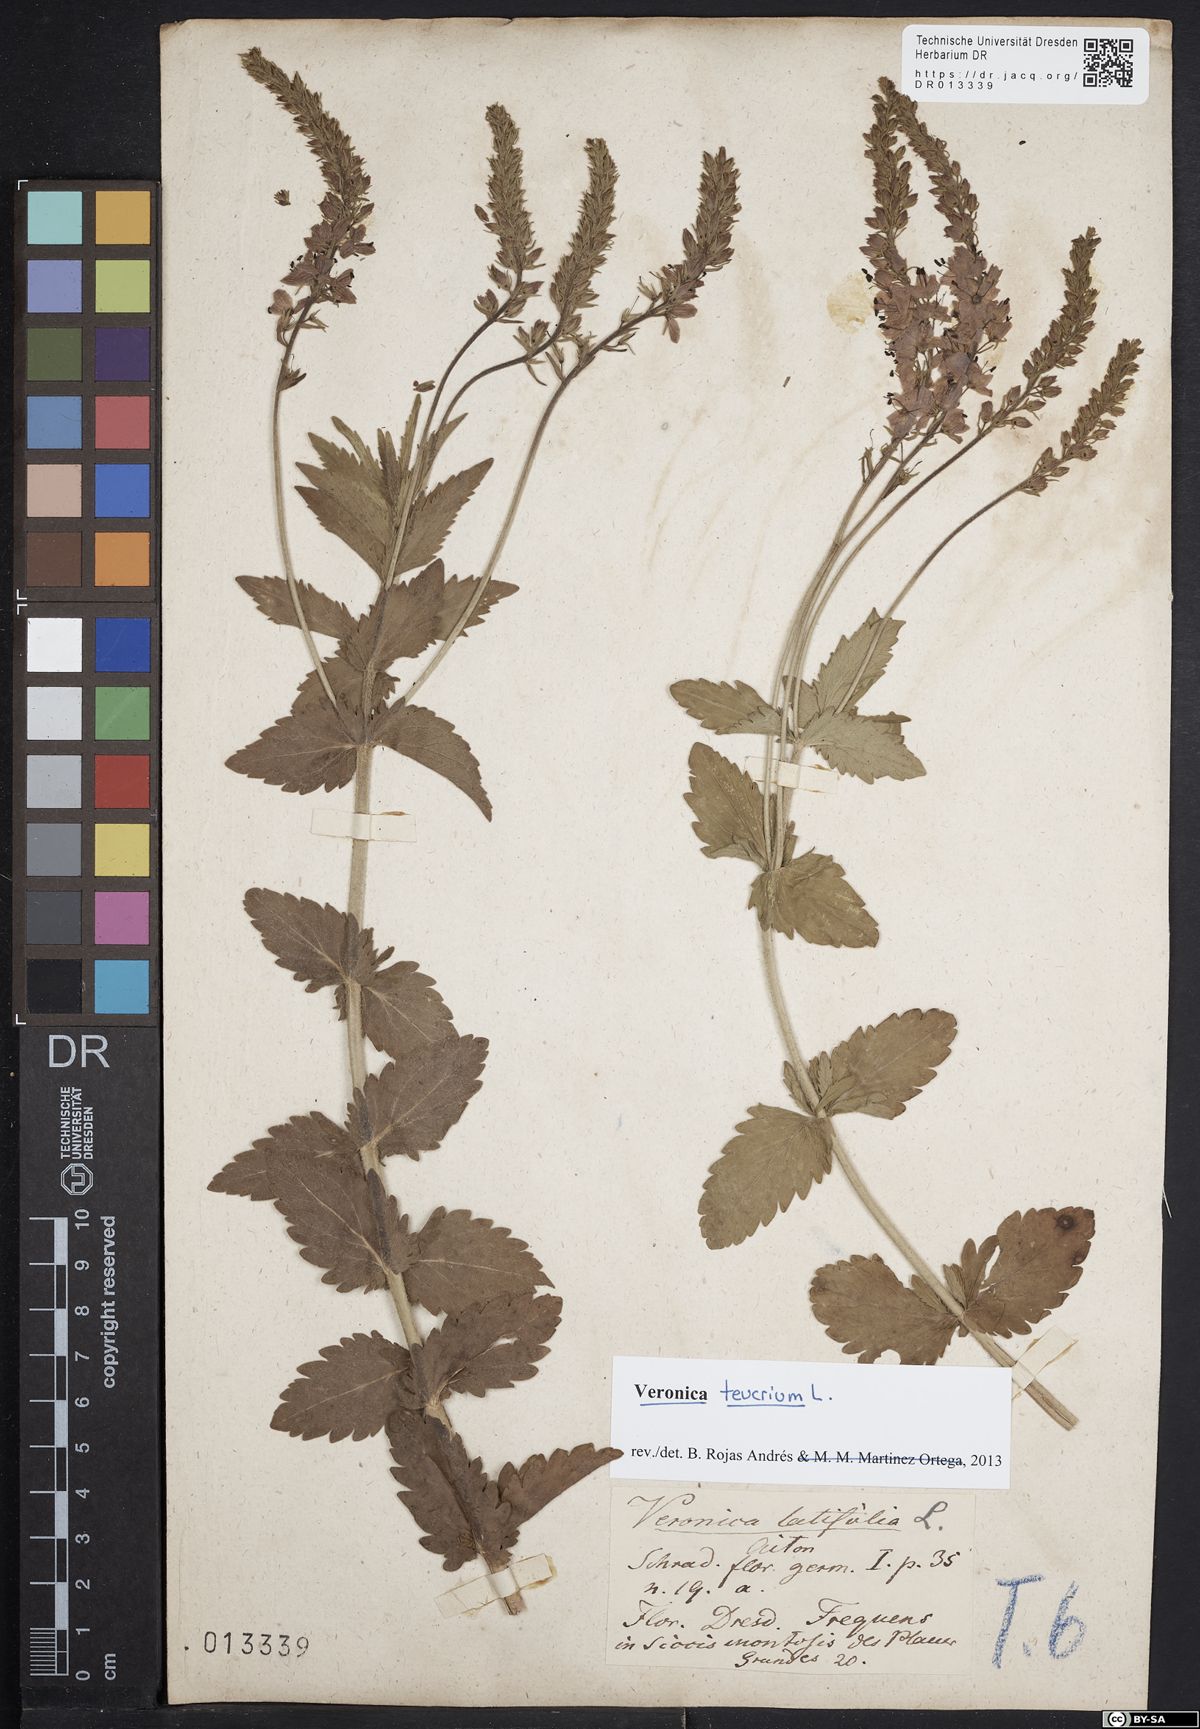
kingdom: Plantae
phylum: Tracheophyta
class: Magnoliopsida
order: Lamiales
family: Plantaginaceae
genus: Veronica
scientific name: Veronica teucrium
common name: Large speedwell
